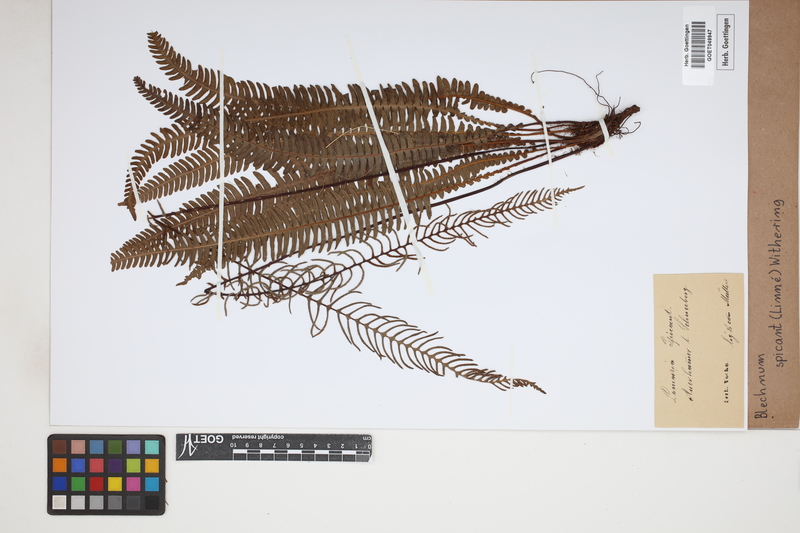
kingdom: Plantae
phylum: Tracheophyta
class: Polypodiopsida
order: Polypodiales
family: Blechnaceae
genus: Struthiopteris
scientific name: Struthiopteris spicant
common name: Deer fern
